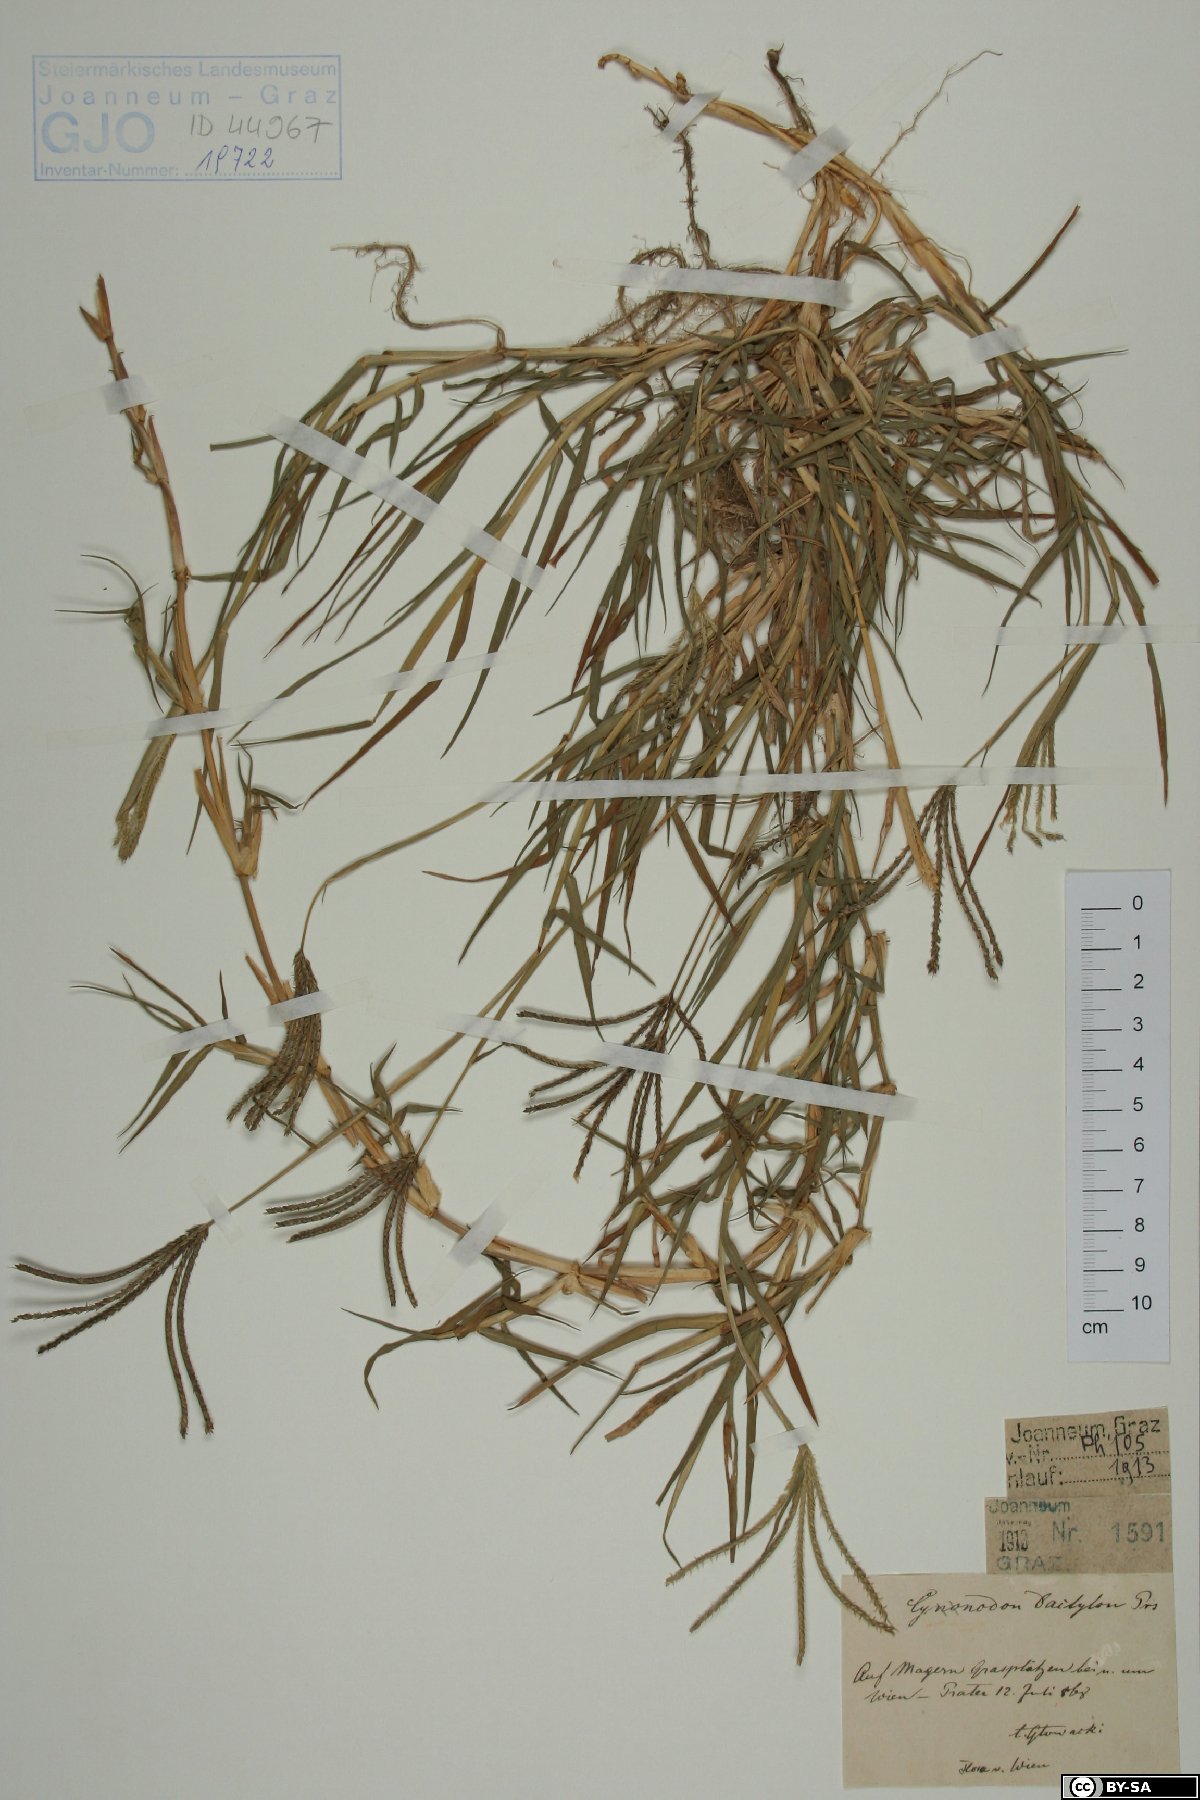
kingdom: Plantae
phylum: Tracheophyta
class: Liliopsida
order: Poales
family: Poaceae
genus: Cynodon
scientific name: Cynodon dactylon
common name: Bermuda grass
